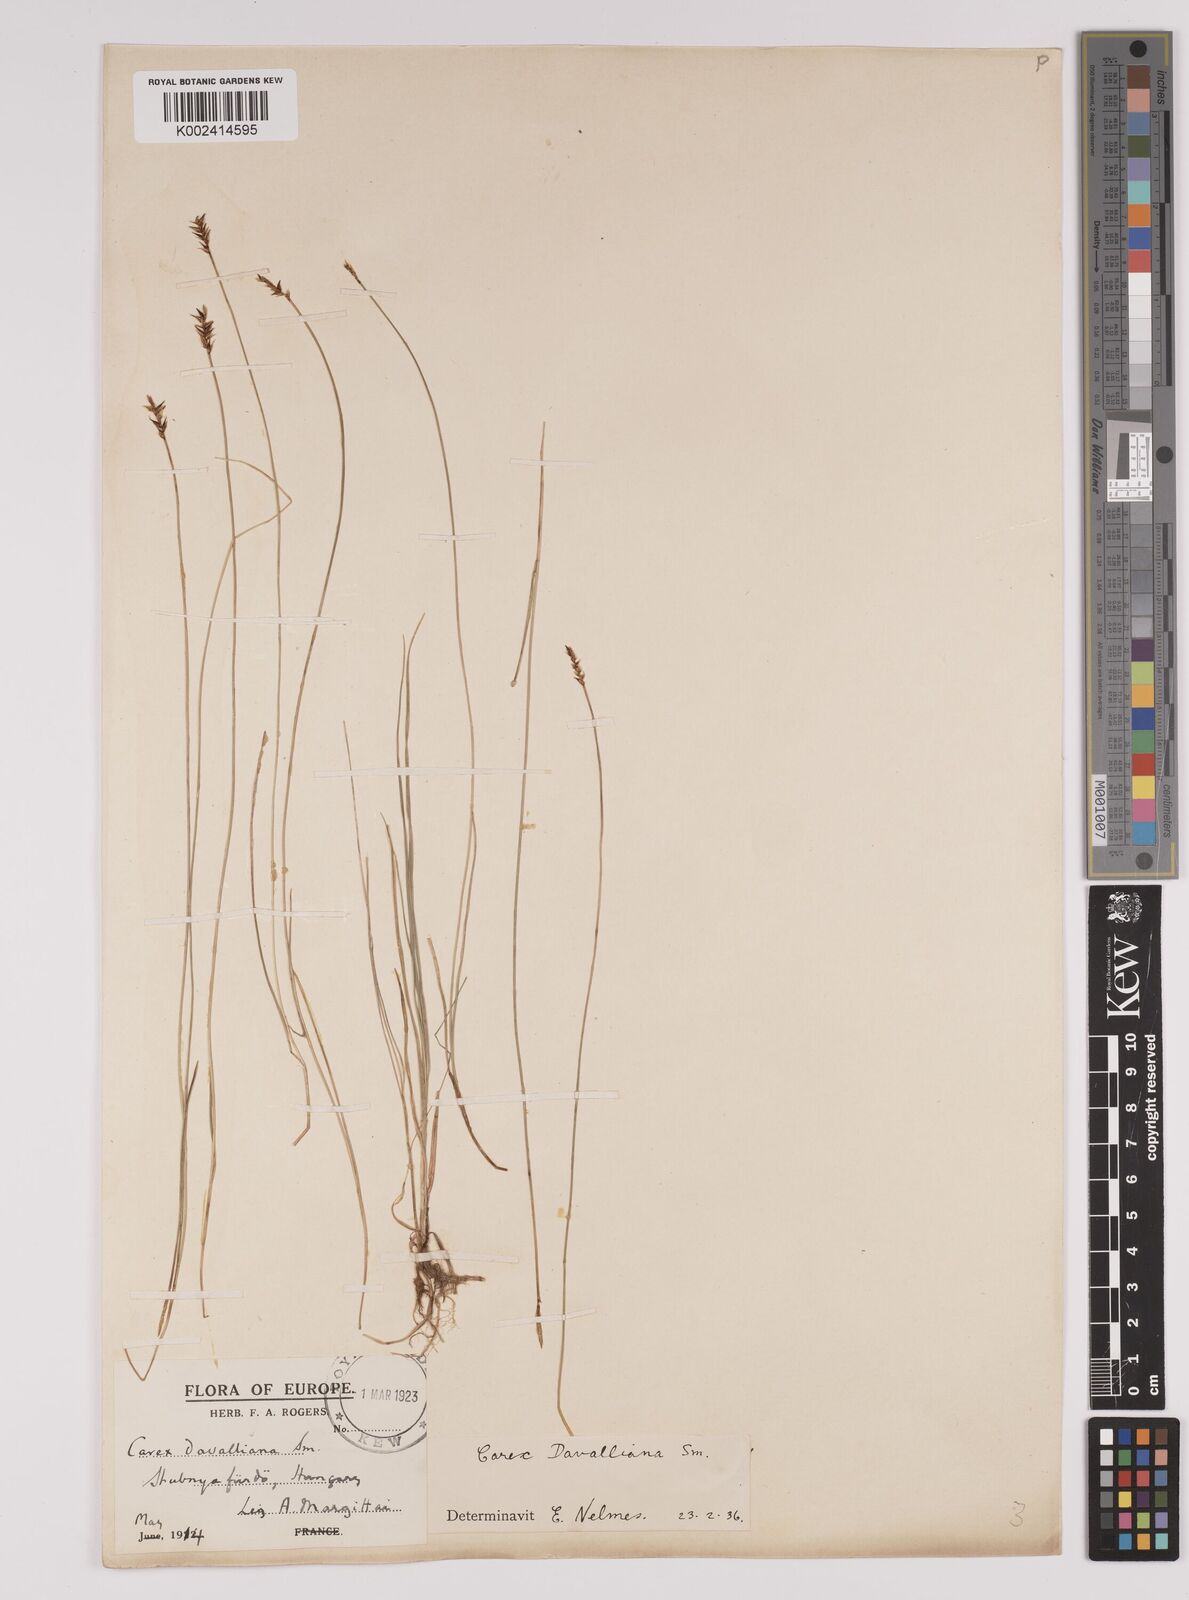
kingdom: Plantae
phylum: Tracheophyta
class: Liliopsida
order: Poales
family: Cyperaceae
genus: Carex
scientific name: Carex davalliana
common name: Davall's sedge
